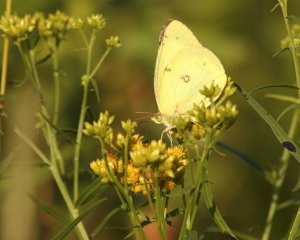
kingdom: Animalia
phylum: Arthropoda
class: Insecta
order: Lepidoptera
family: Pieridae
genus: Colias
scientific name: Colias philodice
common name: Clouded Sulphur
